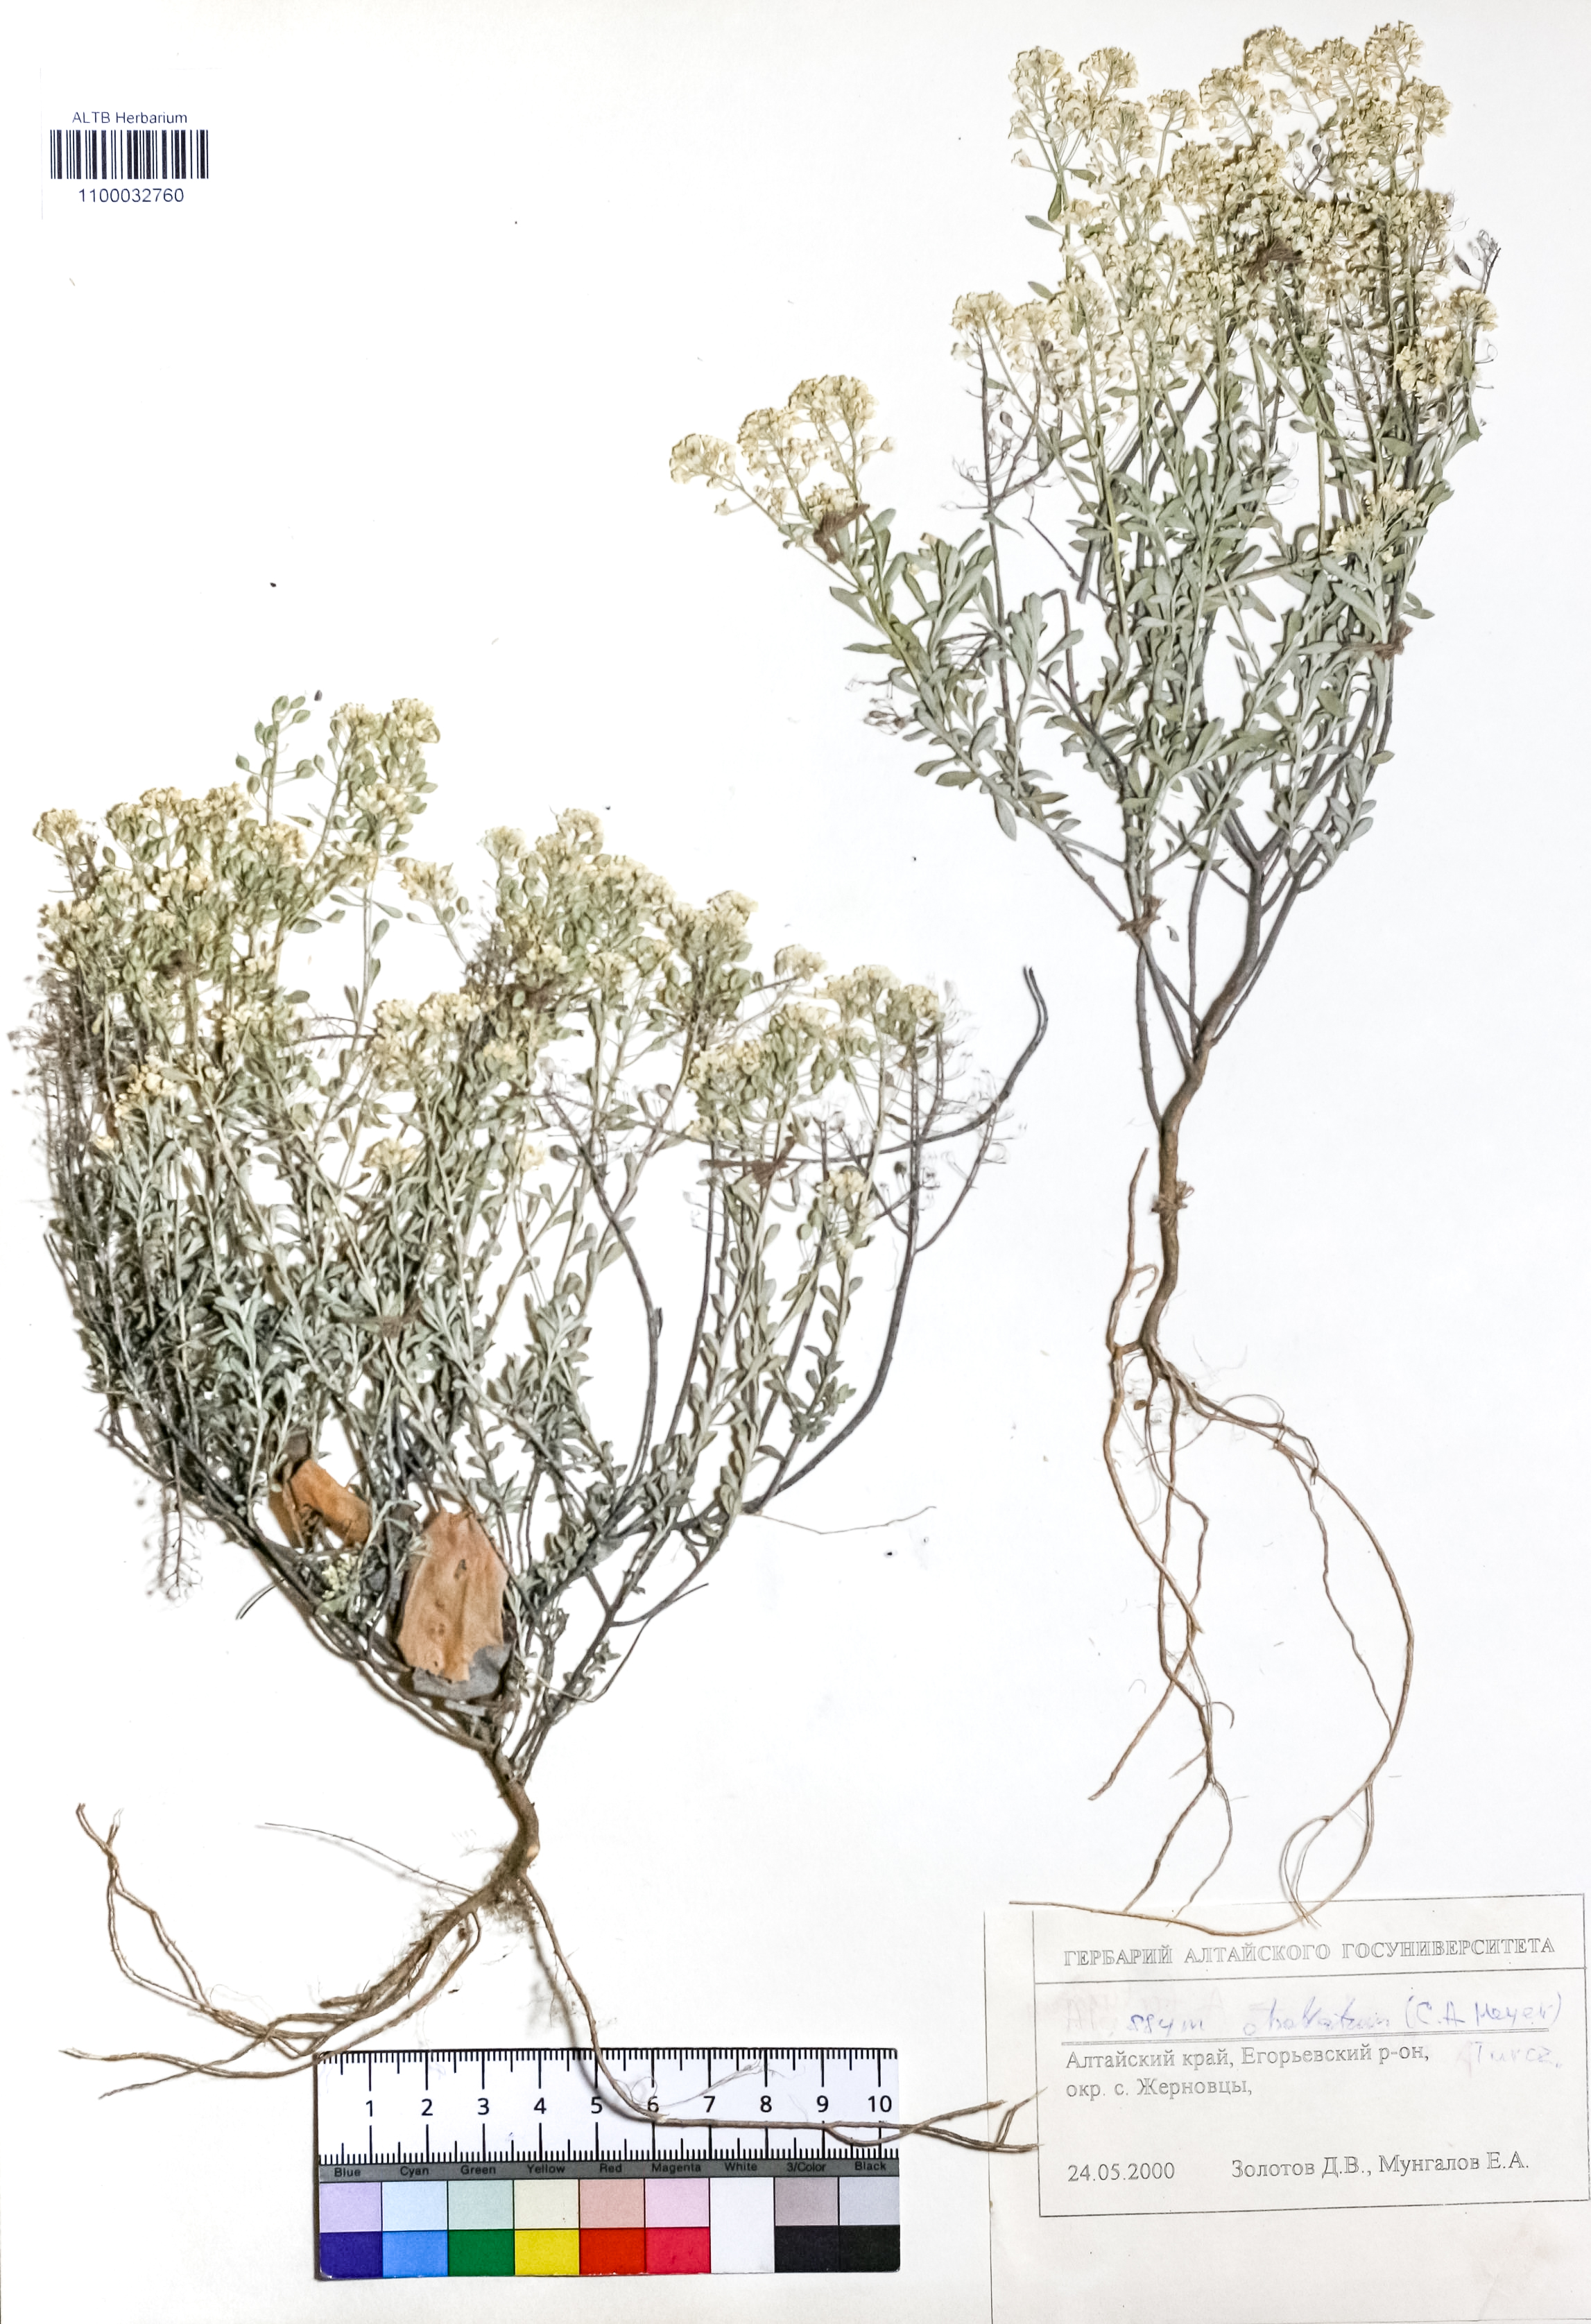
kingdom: Plantae
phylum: Tracheophyta
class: Magnoliopsida
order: Brassicales
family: Brassicaceae
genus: Odontarrhena
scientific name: Odontarrhena obovata
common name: American alyssum
